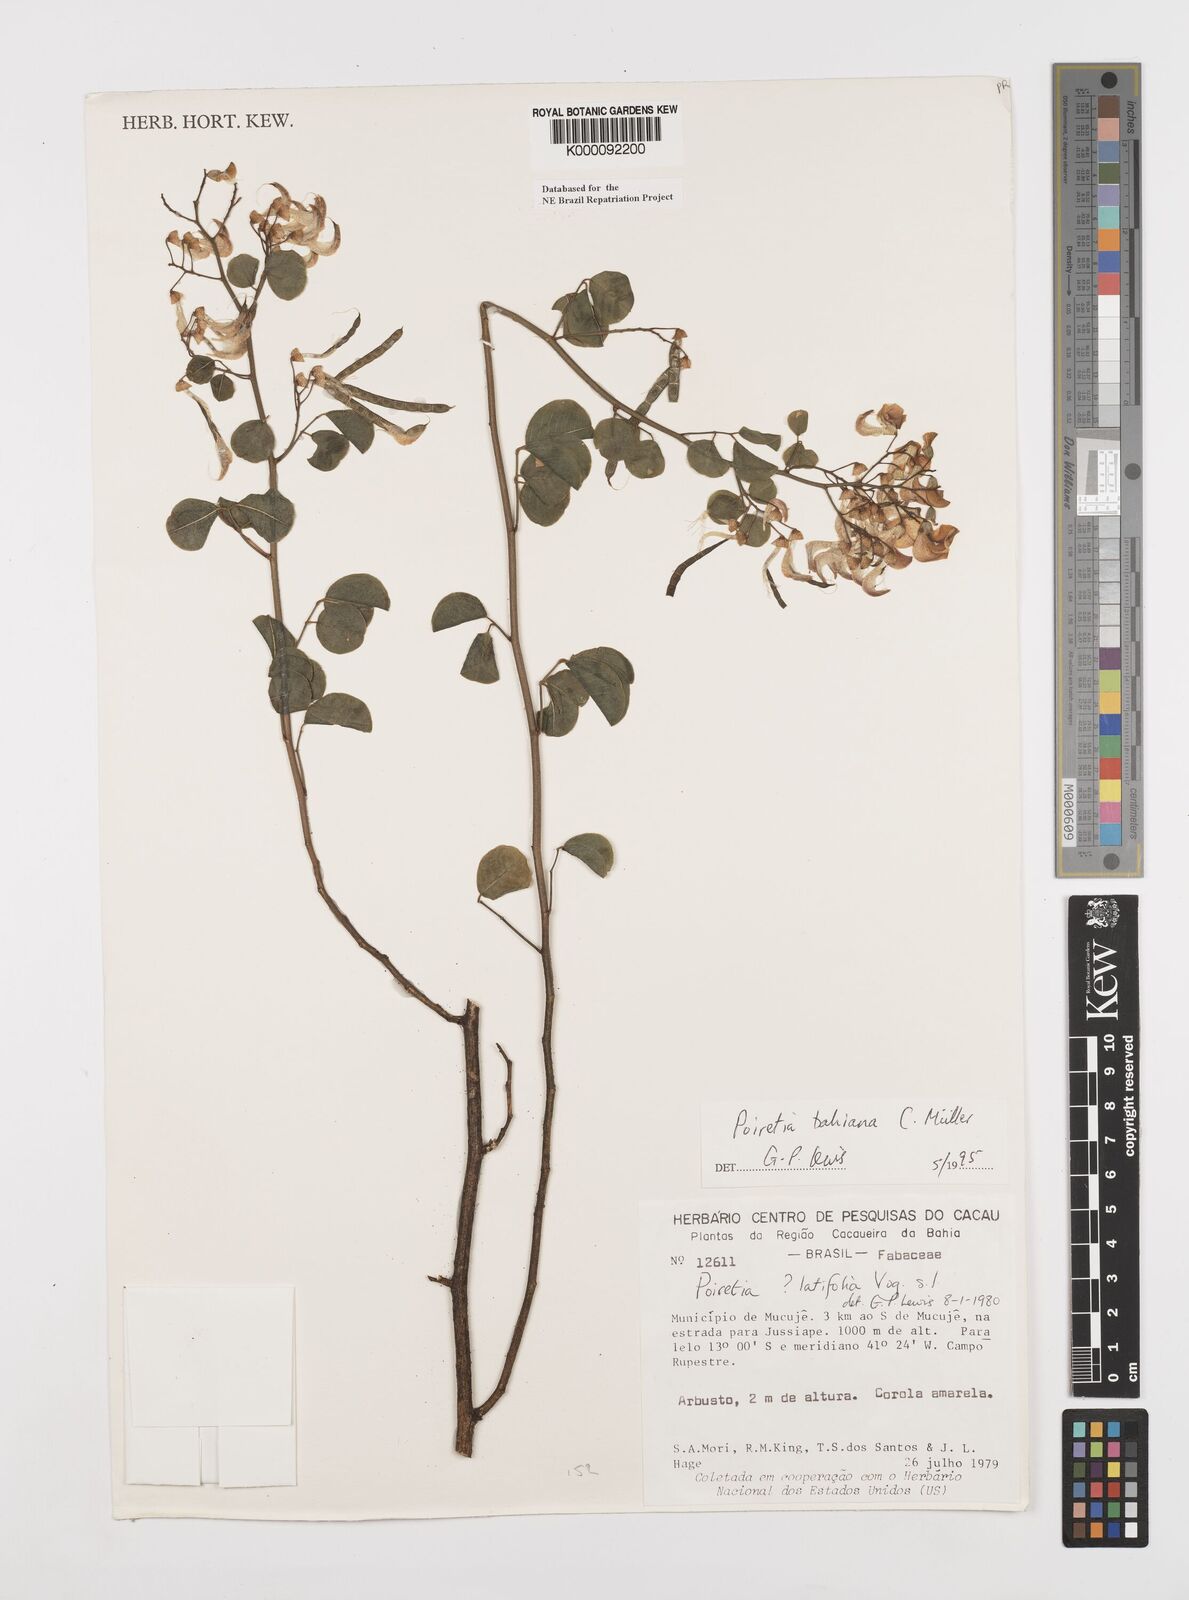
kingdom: Plantae
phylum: Tracheophyta
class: Magnoliopsida
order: Fabales
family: Fabaceae
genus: Poiretia
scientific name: Poiretia
